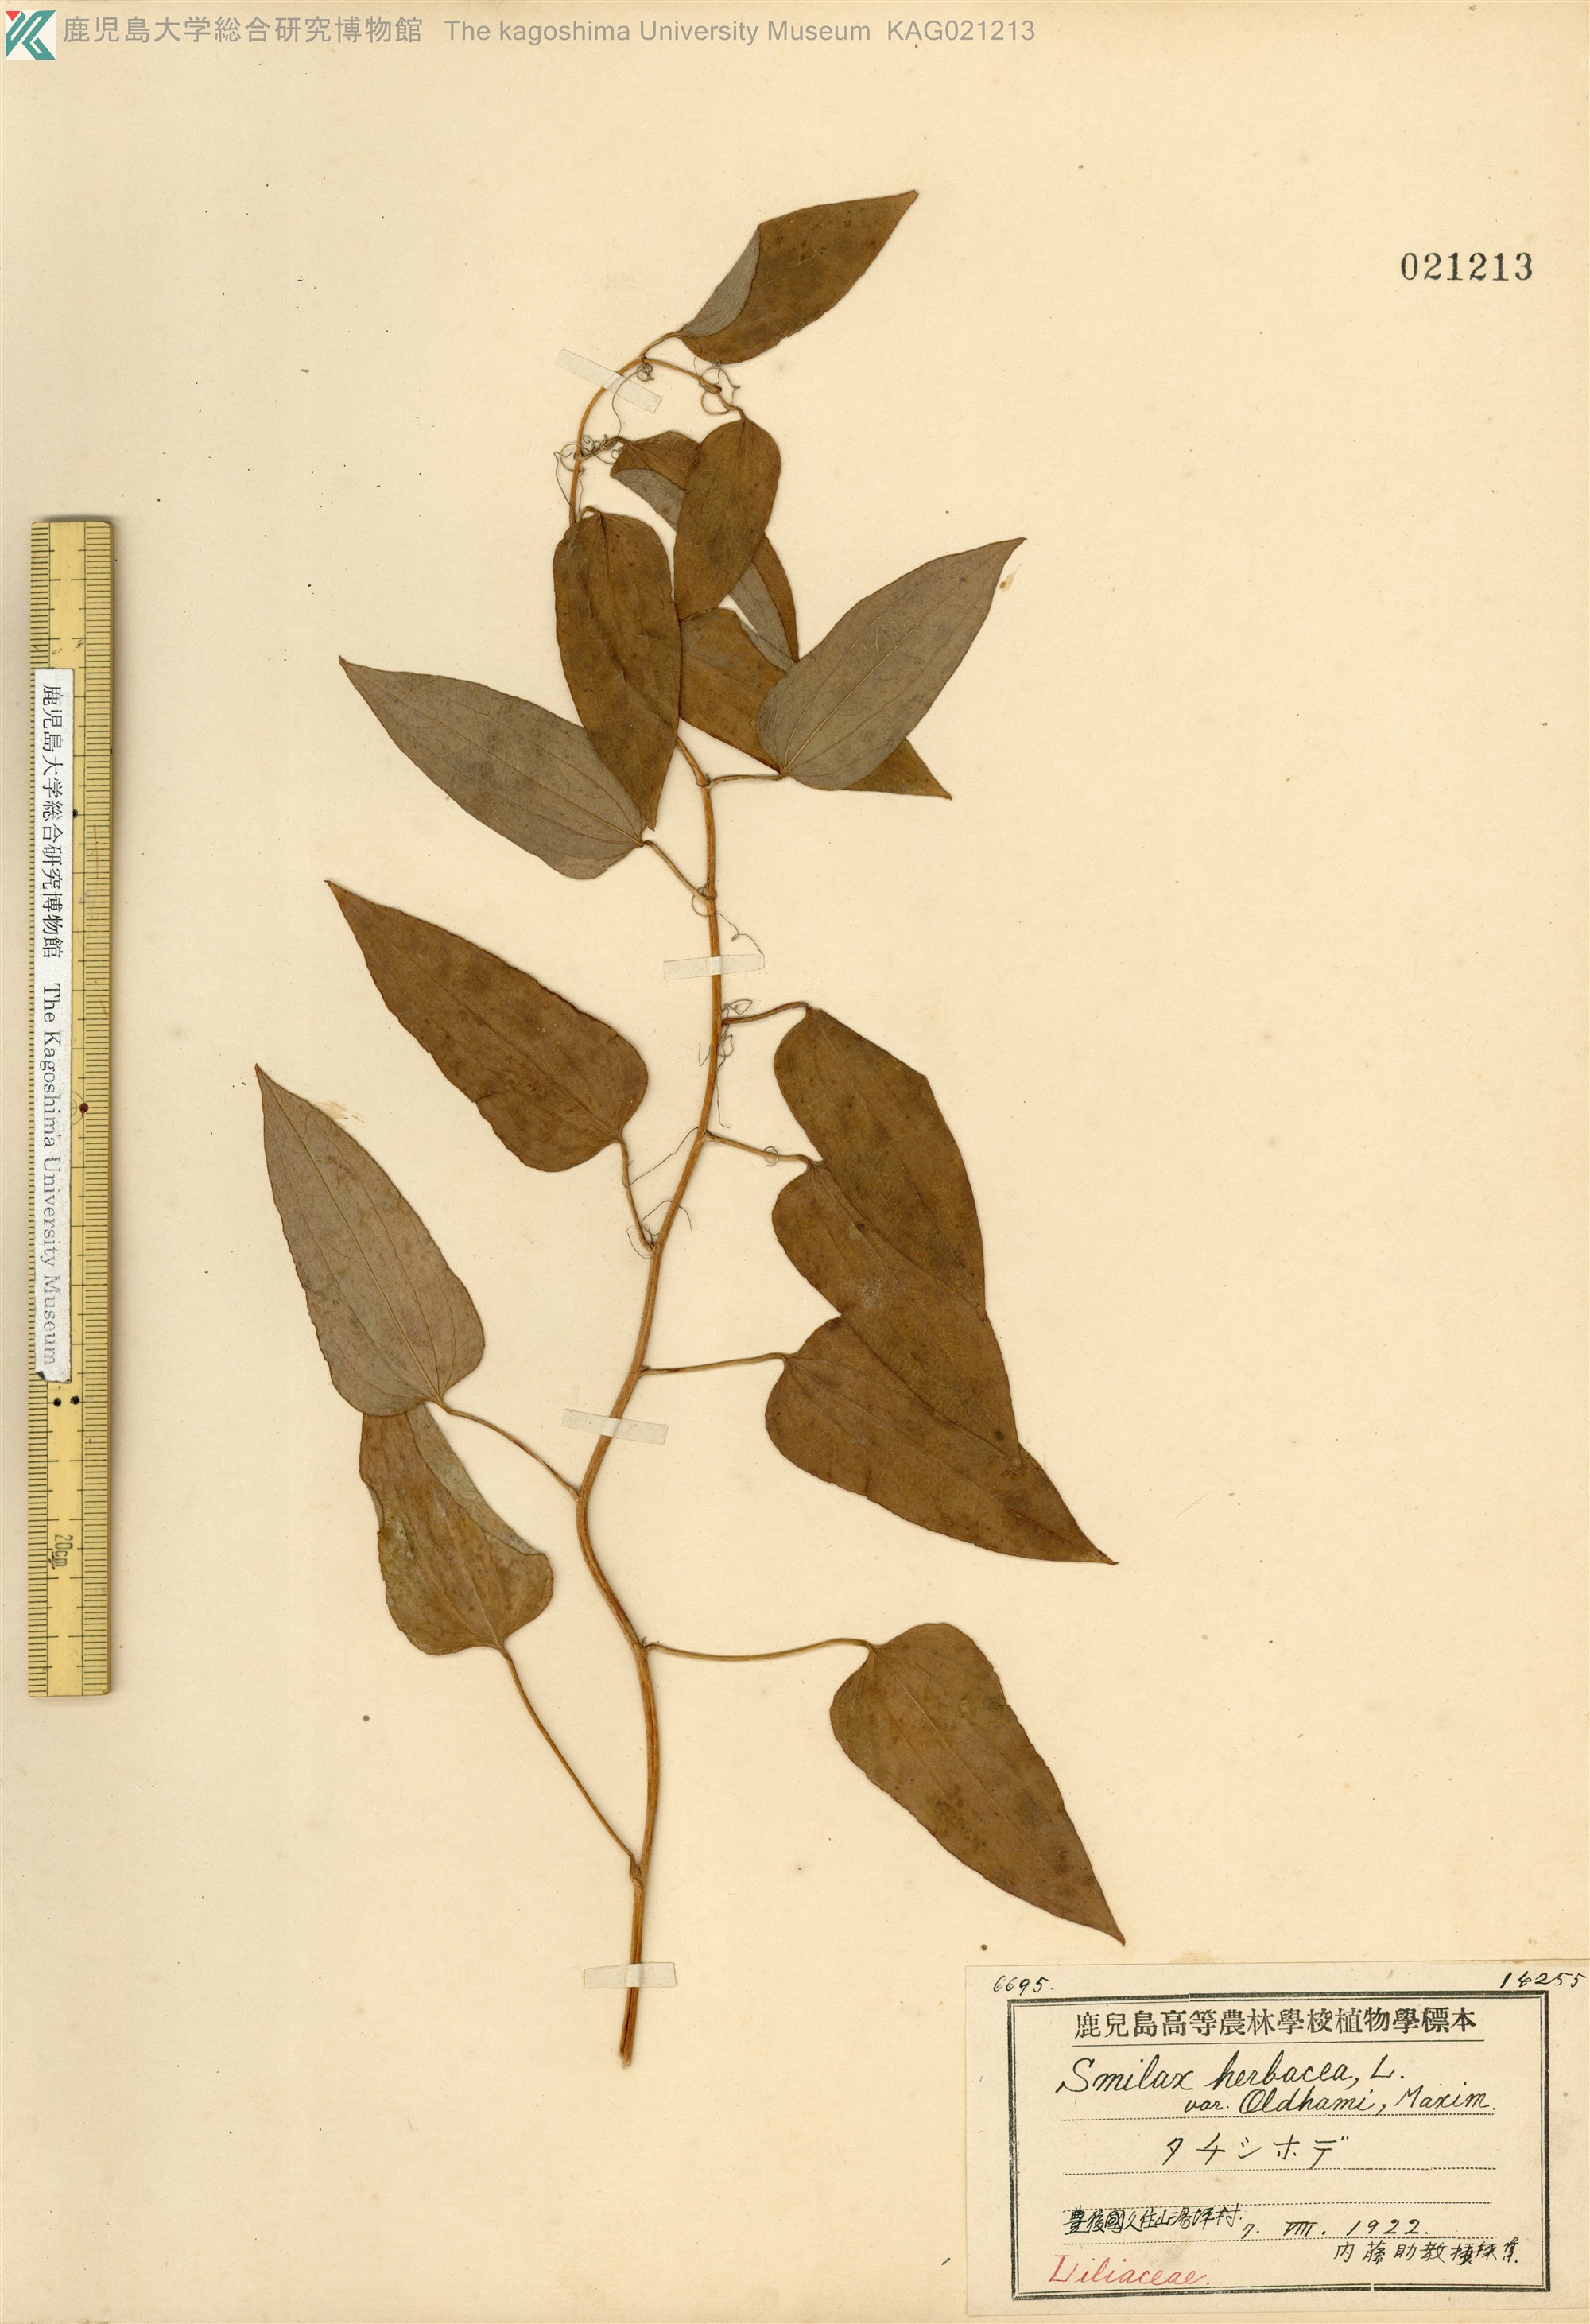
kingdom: Plantae
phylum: Tracheophyta
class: Liliopsida
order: Liliales
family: Smilacaceae
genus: Smilax
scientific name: Smilax nipponica
